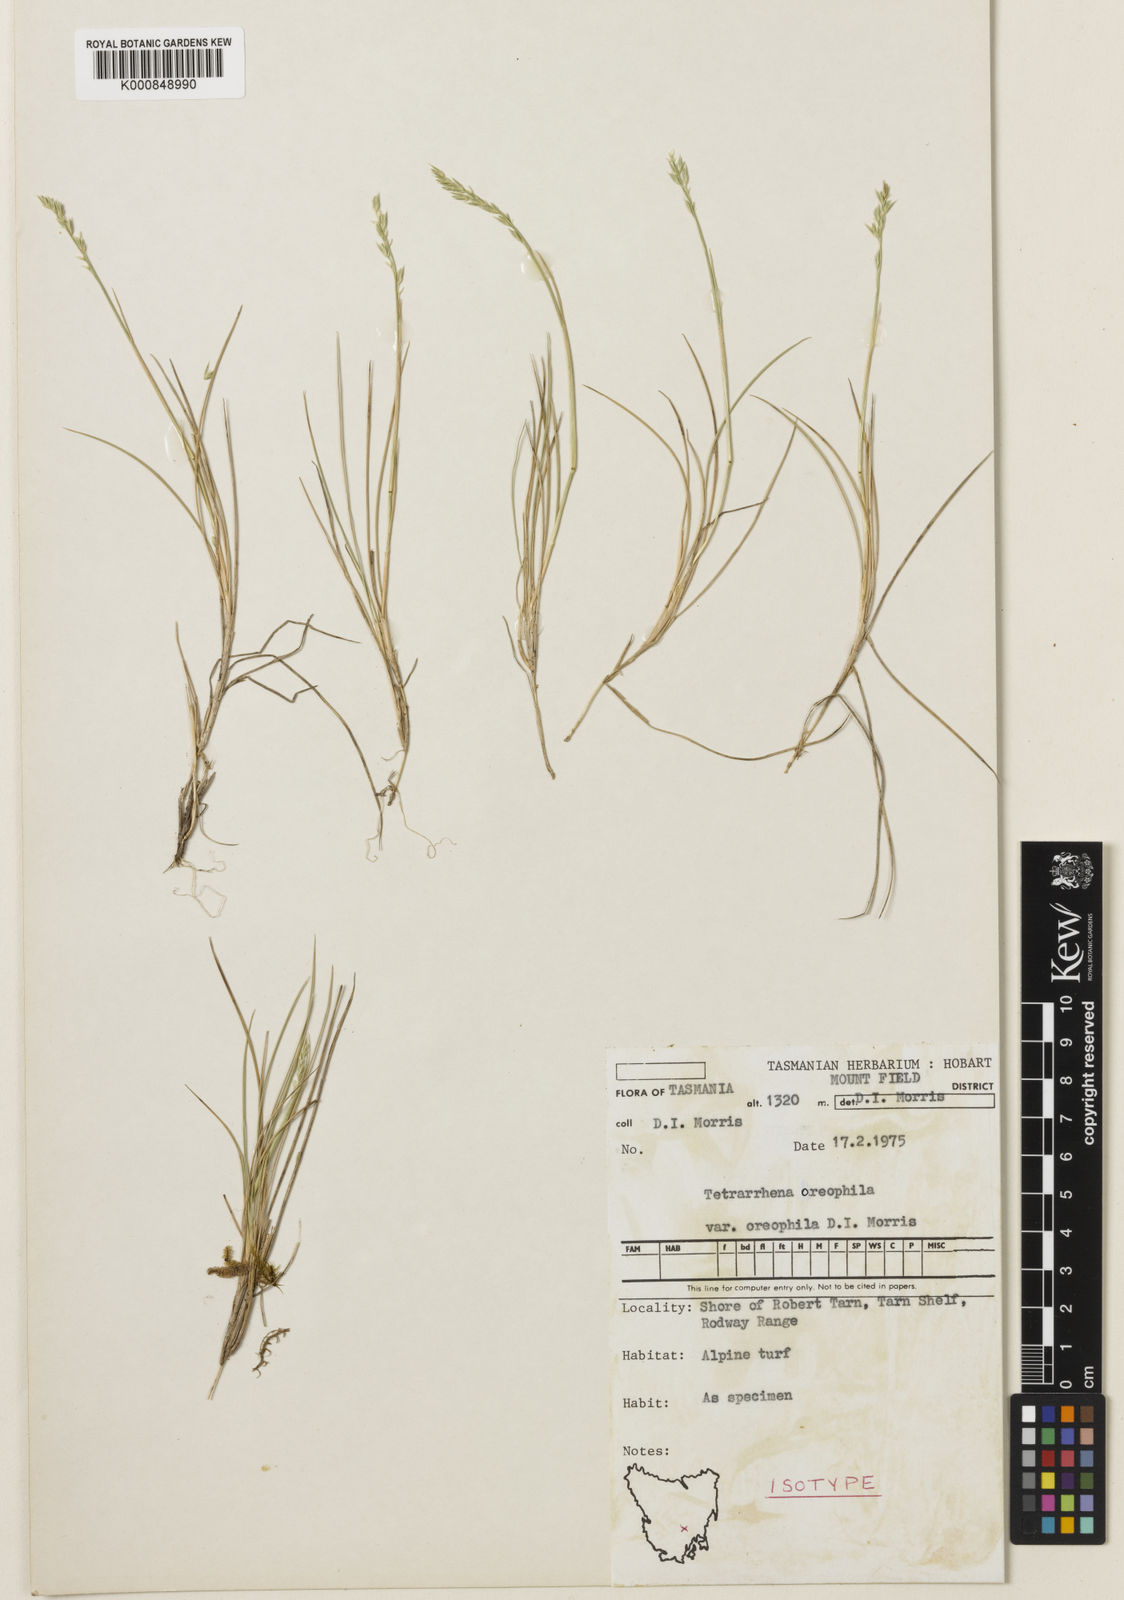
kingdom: Plantae
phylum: Tracheophyta
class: Liliopsida
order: Poales
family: Poaceae
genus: Tetrarrhena
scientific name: Tetrarrhena oreophila
